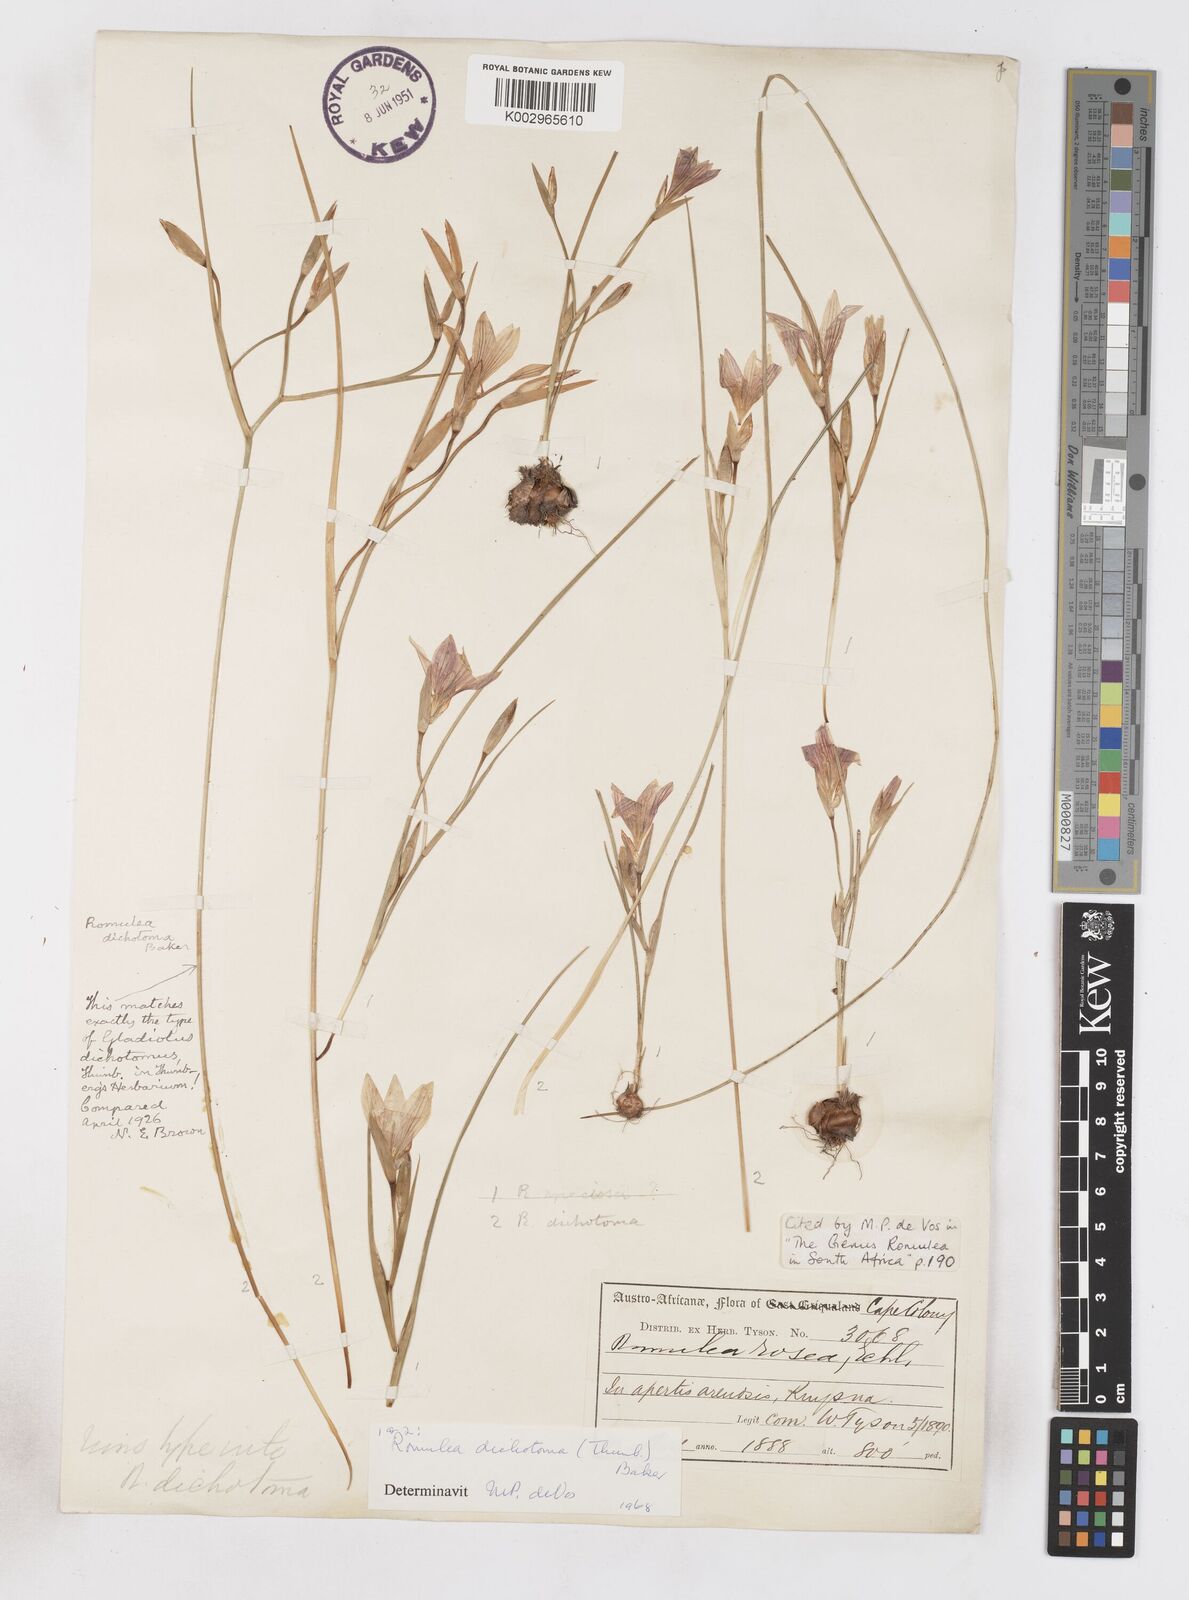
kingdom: Plantae
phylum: Tracheophyta
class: Liliopsida
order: Asparagales
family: Iridaceae
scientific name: Iridaceae
